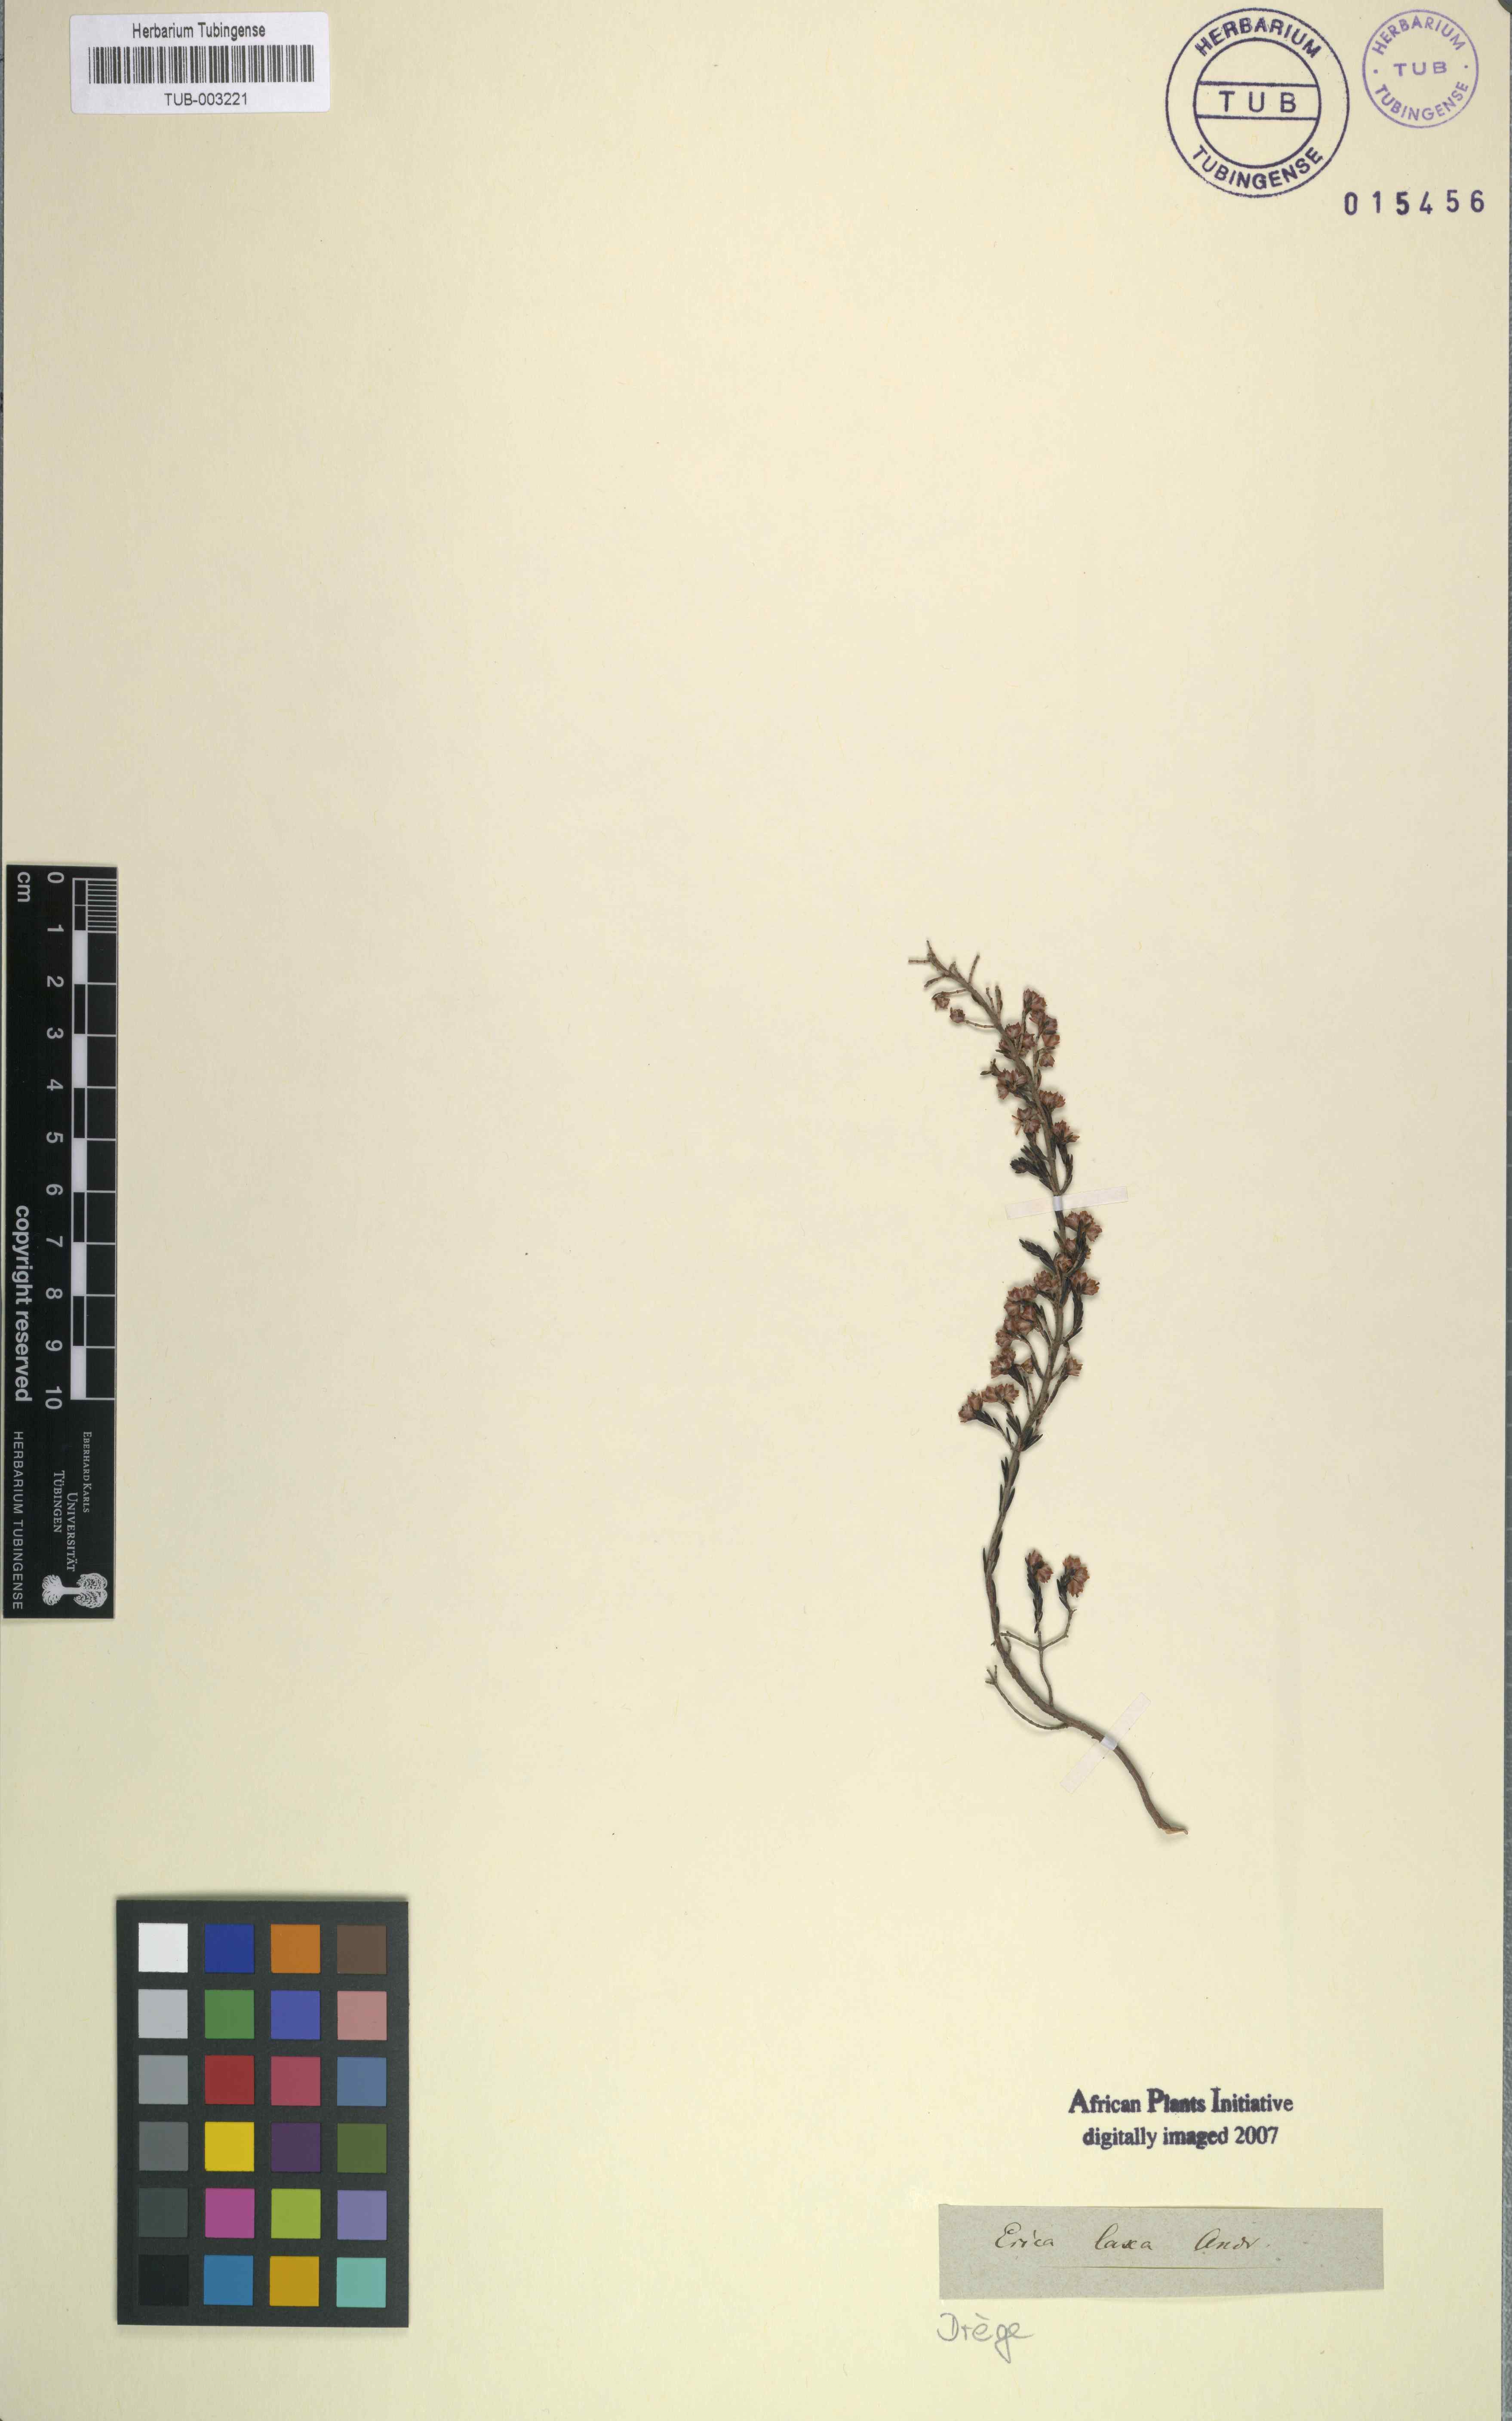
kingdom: Plantae
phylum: Tracheophyta
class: Magnoliopsida
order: Ericales
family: Ericaceae
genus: Erica
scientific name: Erica lucida
